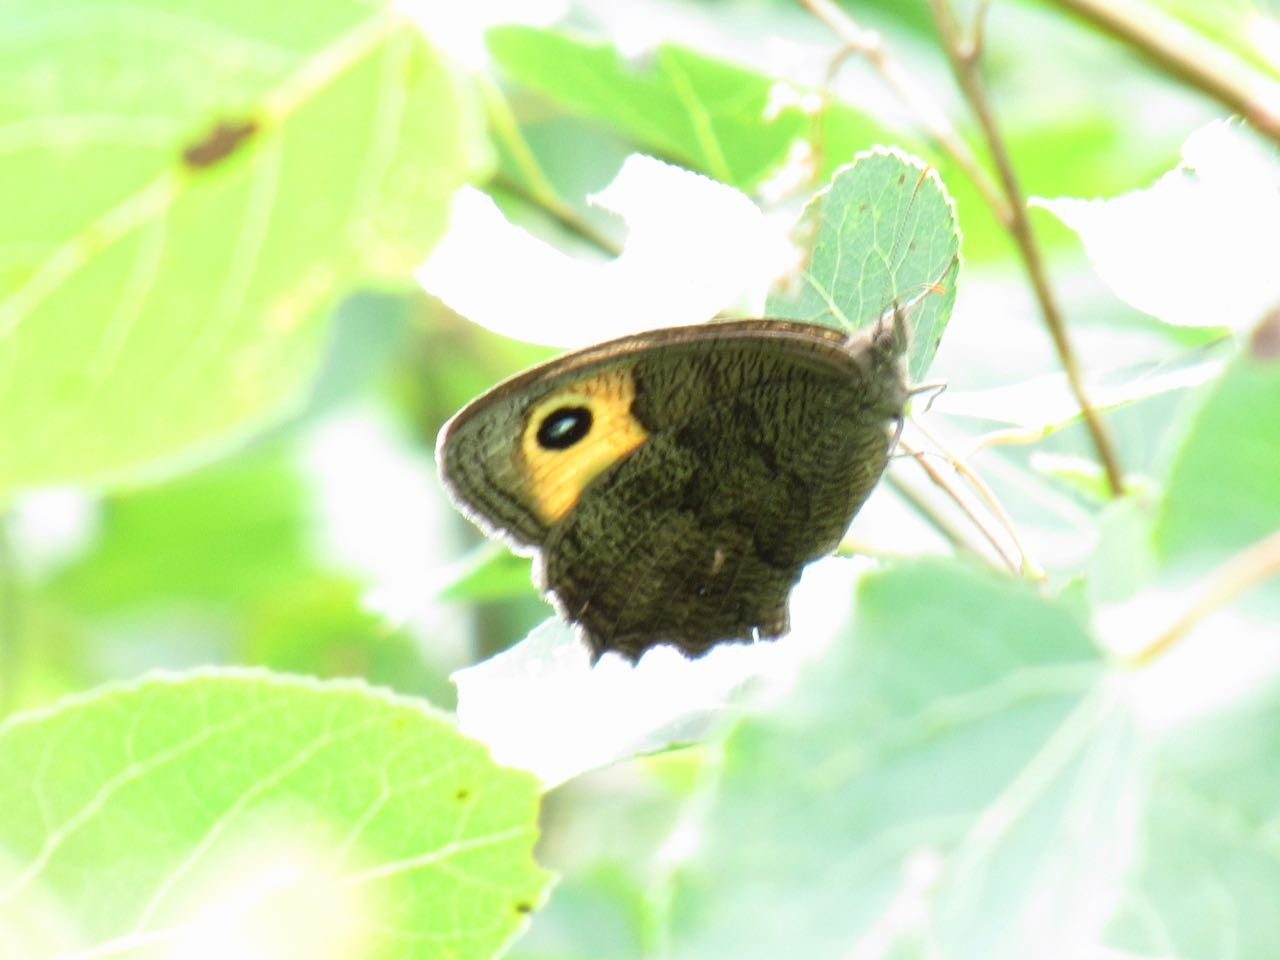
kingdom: Animalia
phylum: Arthropoda
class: Insecta
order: Lepidoptera
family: Nymphalidae
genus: Cercyonis
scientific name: Cercyonis pegala
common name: Common Wood-Nymph
